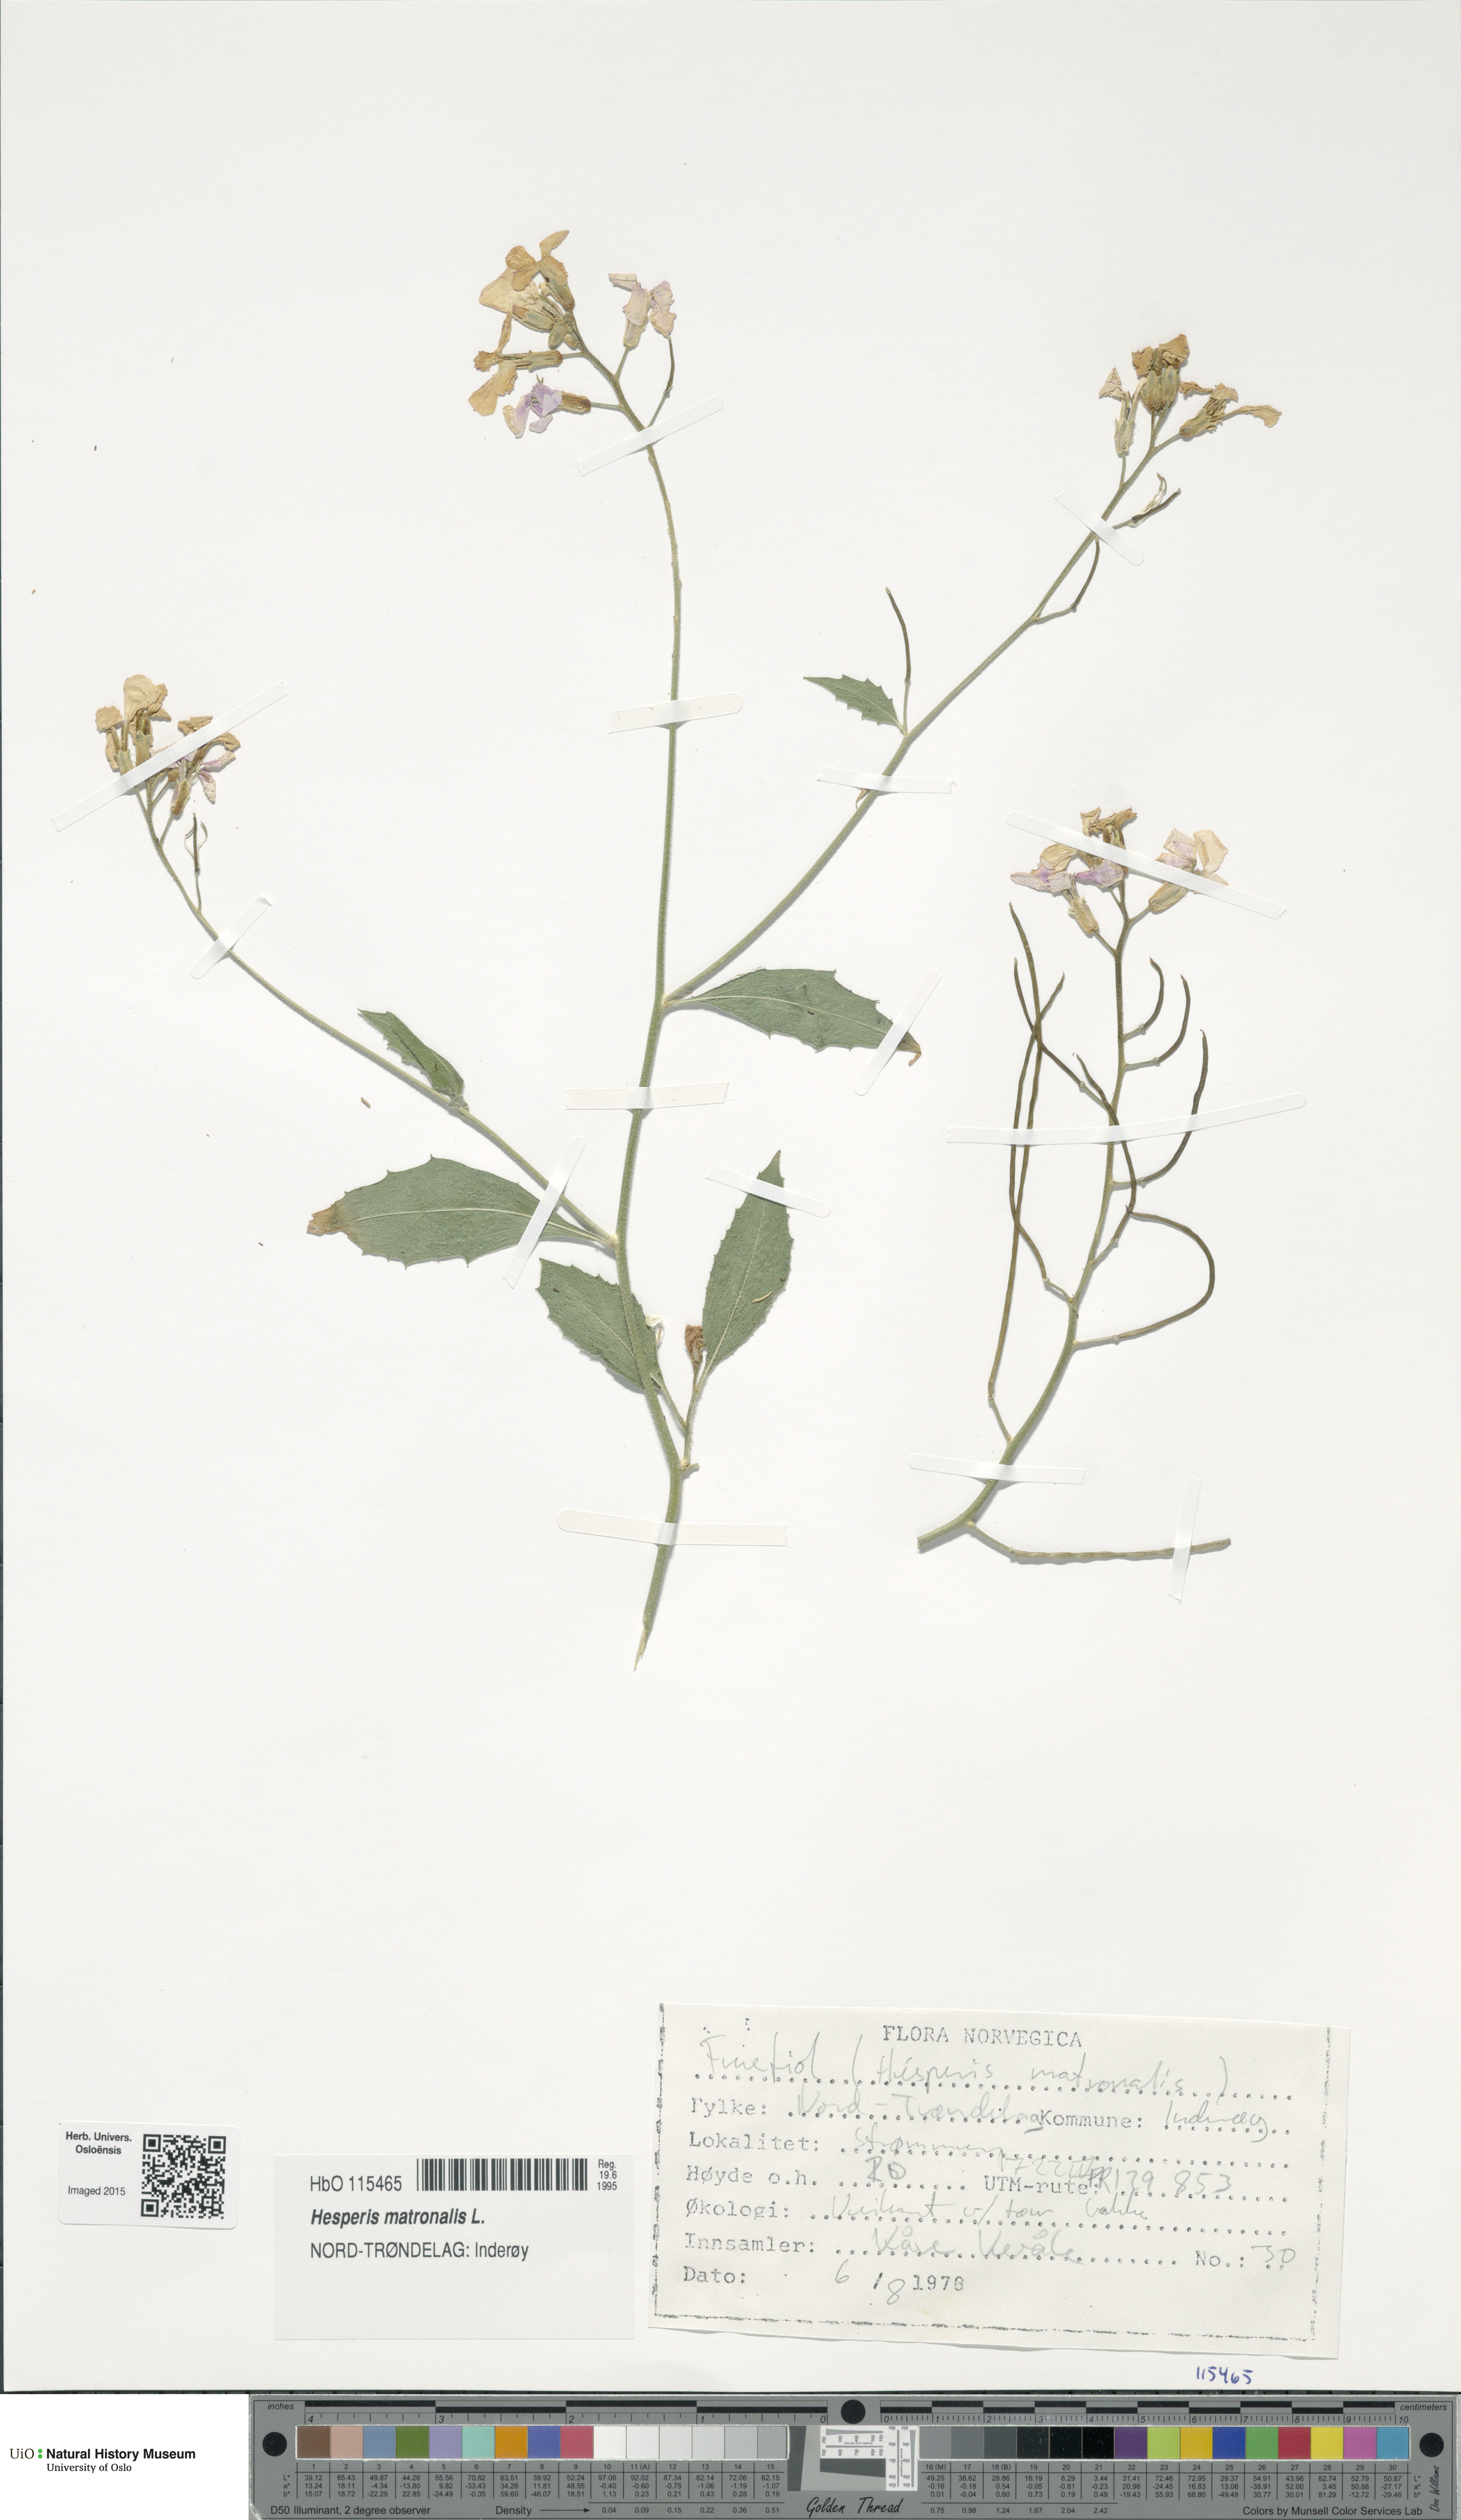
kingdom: Plantae
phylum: Tracheophyta
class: Magnoliopsida
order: Brassicales
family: Brassicaceae
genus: Hesperis
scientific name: Hesperis matronalis
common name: Dame's-violet
